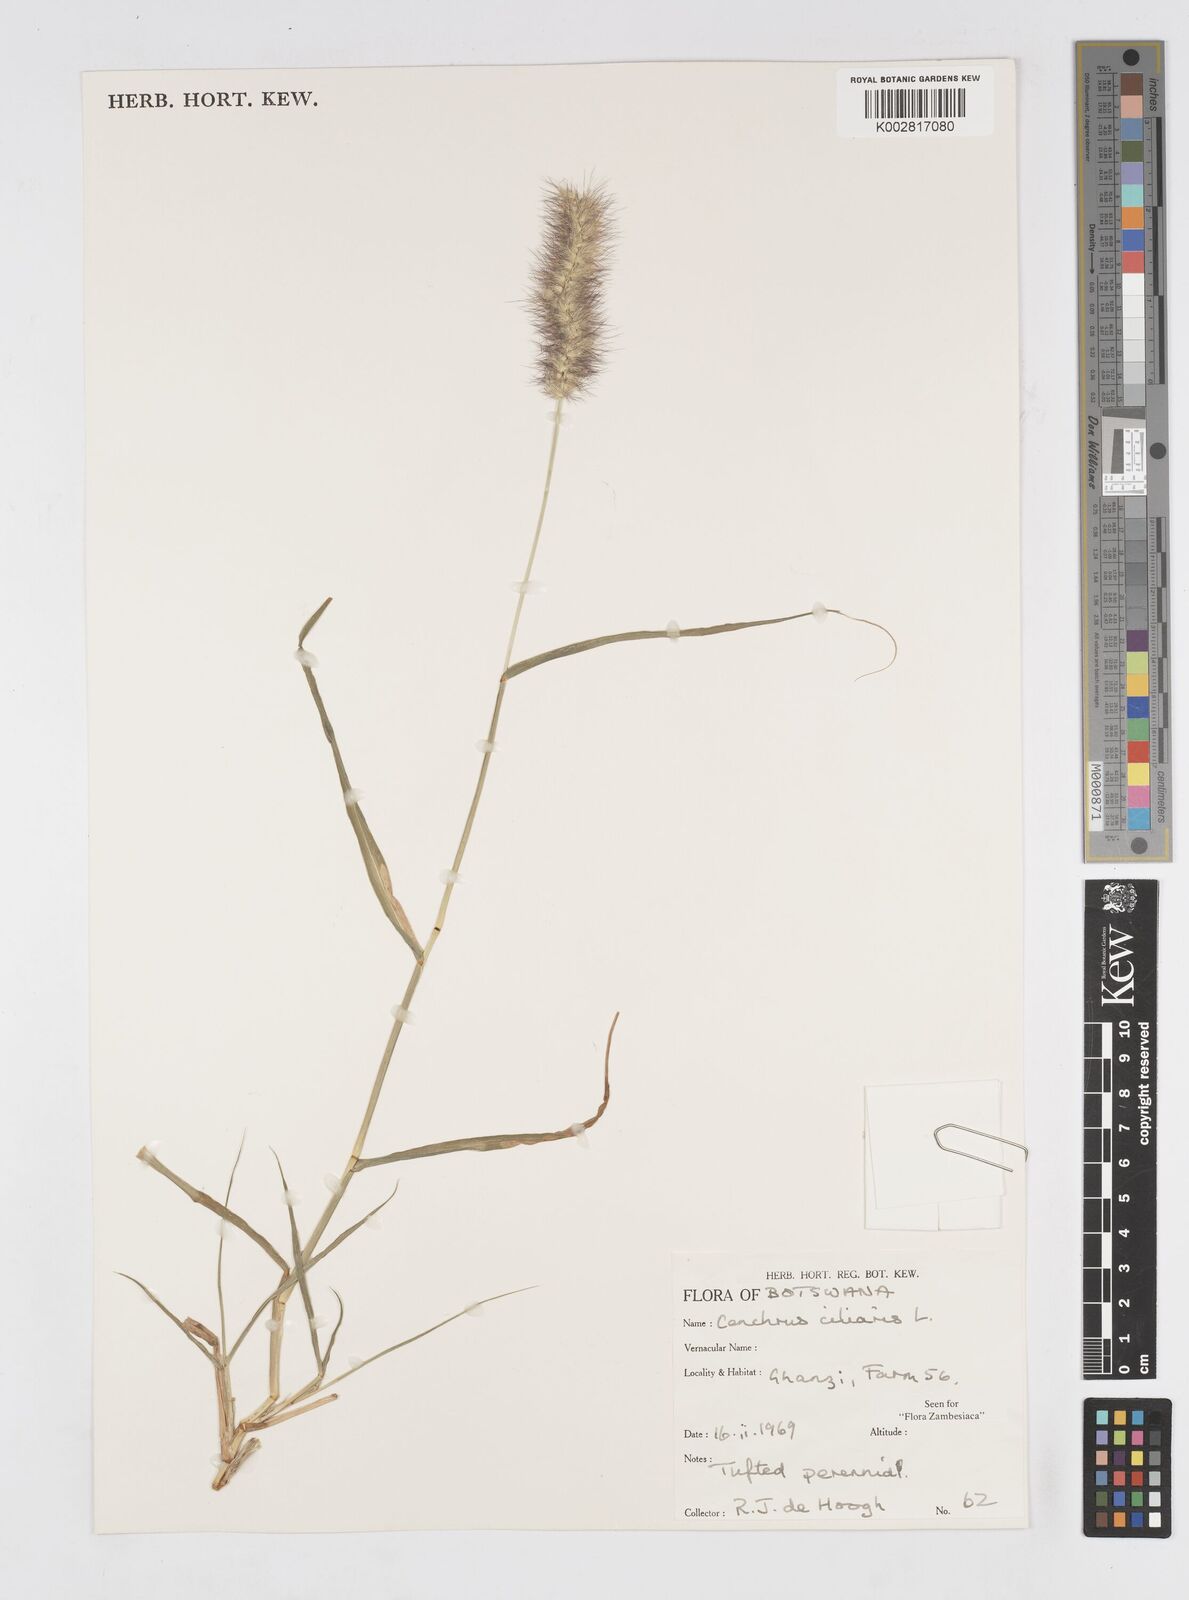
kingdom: Plantae
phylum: Tracheophyta
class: Liliopsida
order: Poales
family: Poaceae
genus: Cenchrus
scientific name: Cenchrus ciliaris
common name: Buffelgrass
